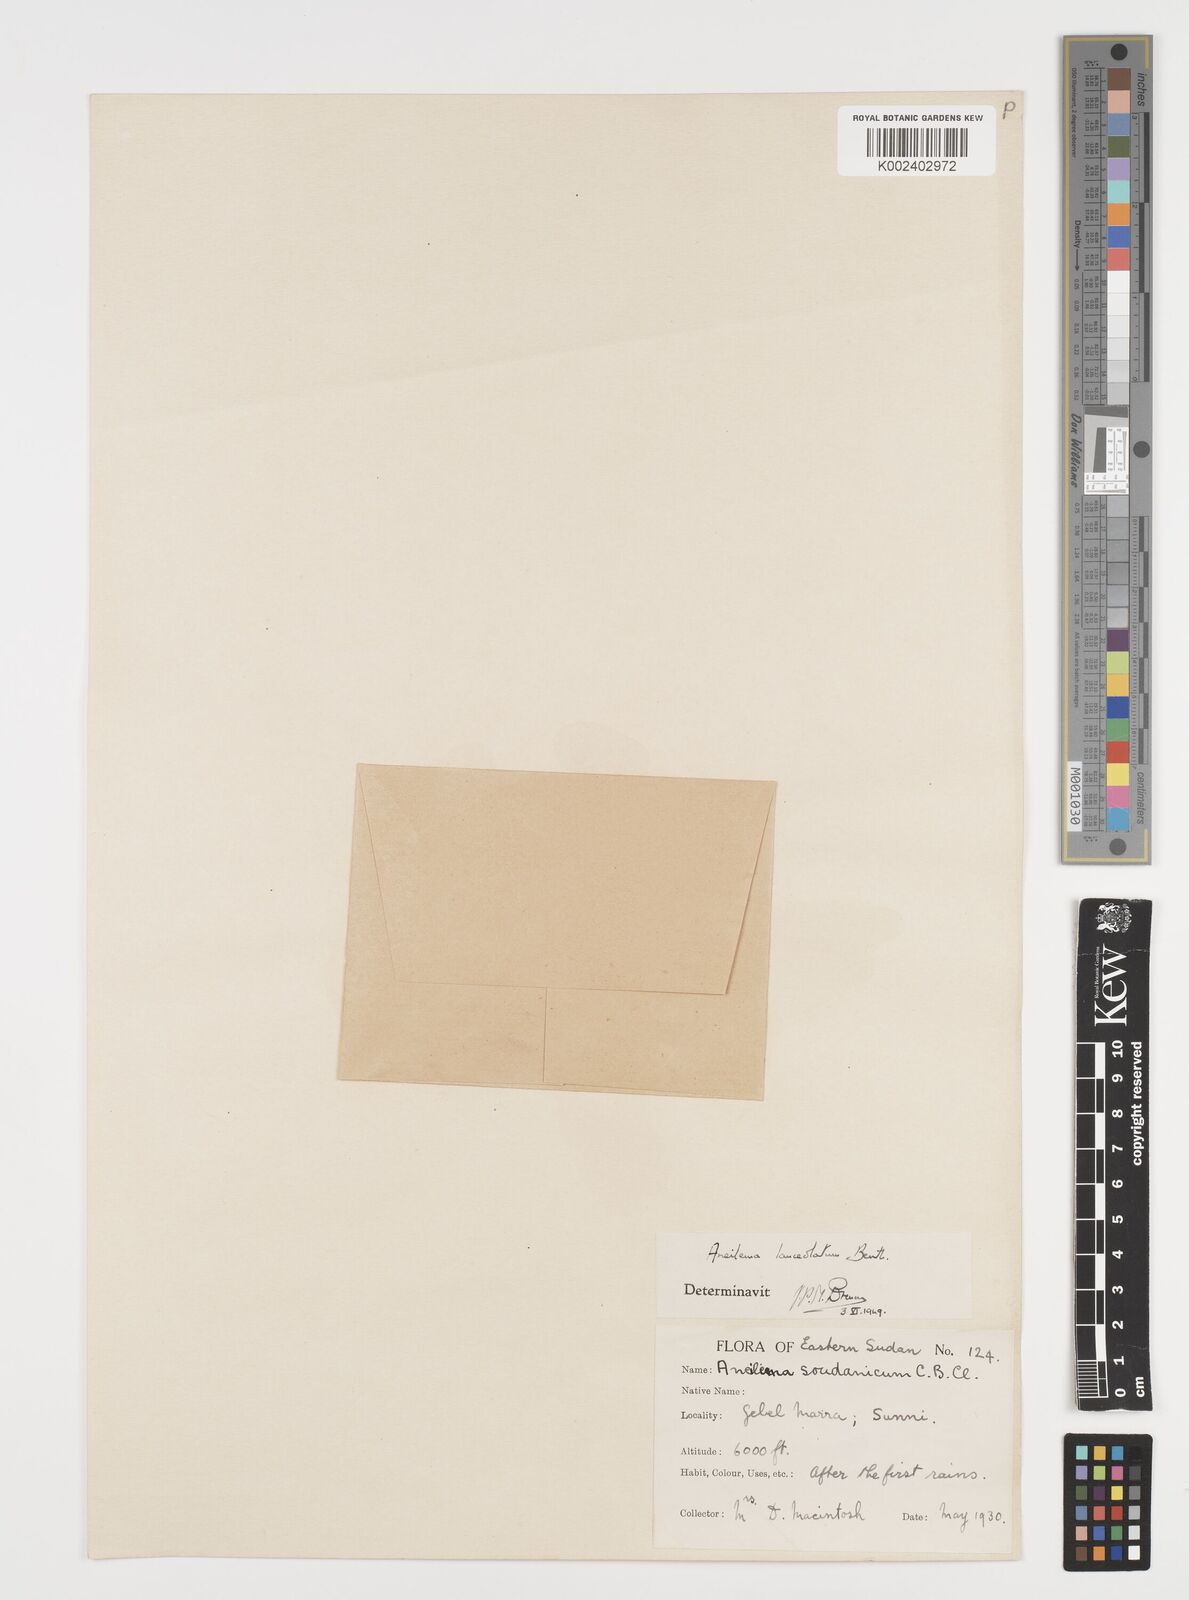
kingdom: Plantae
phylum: Tracheophyta
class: Liliopsida
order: Commelinales
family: Commelinaceae
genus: Aneilema
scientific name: Aneilema lanceolatum
